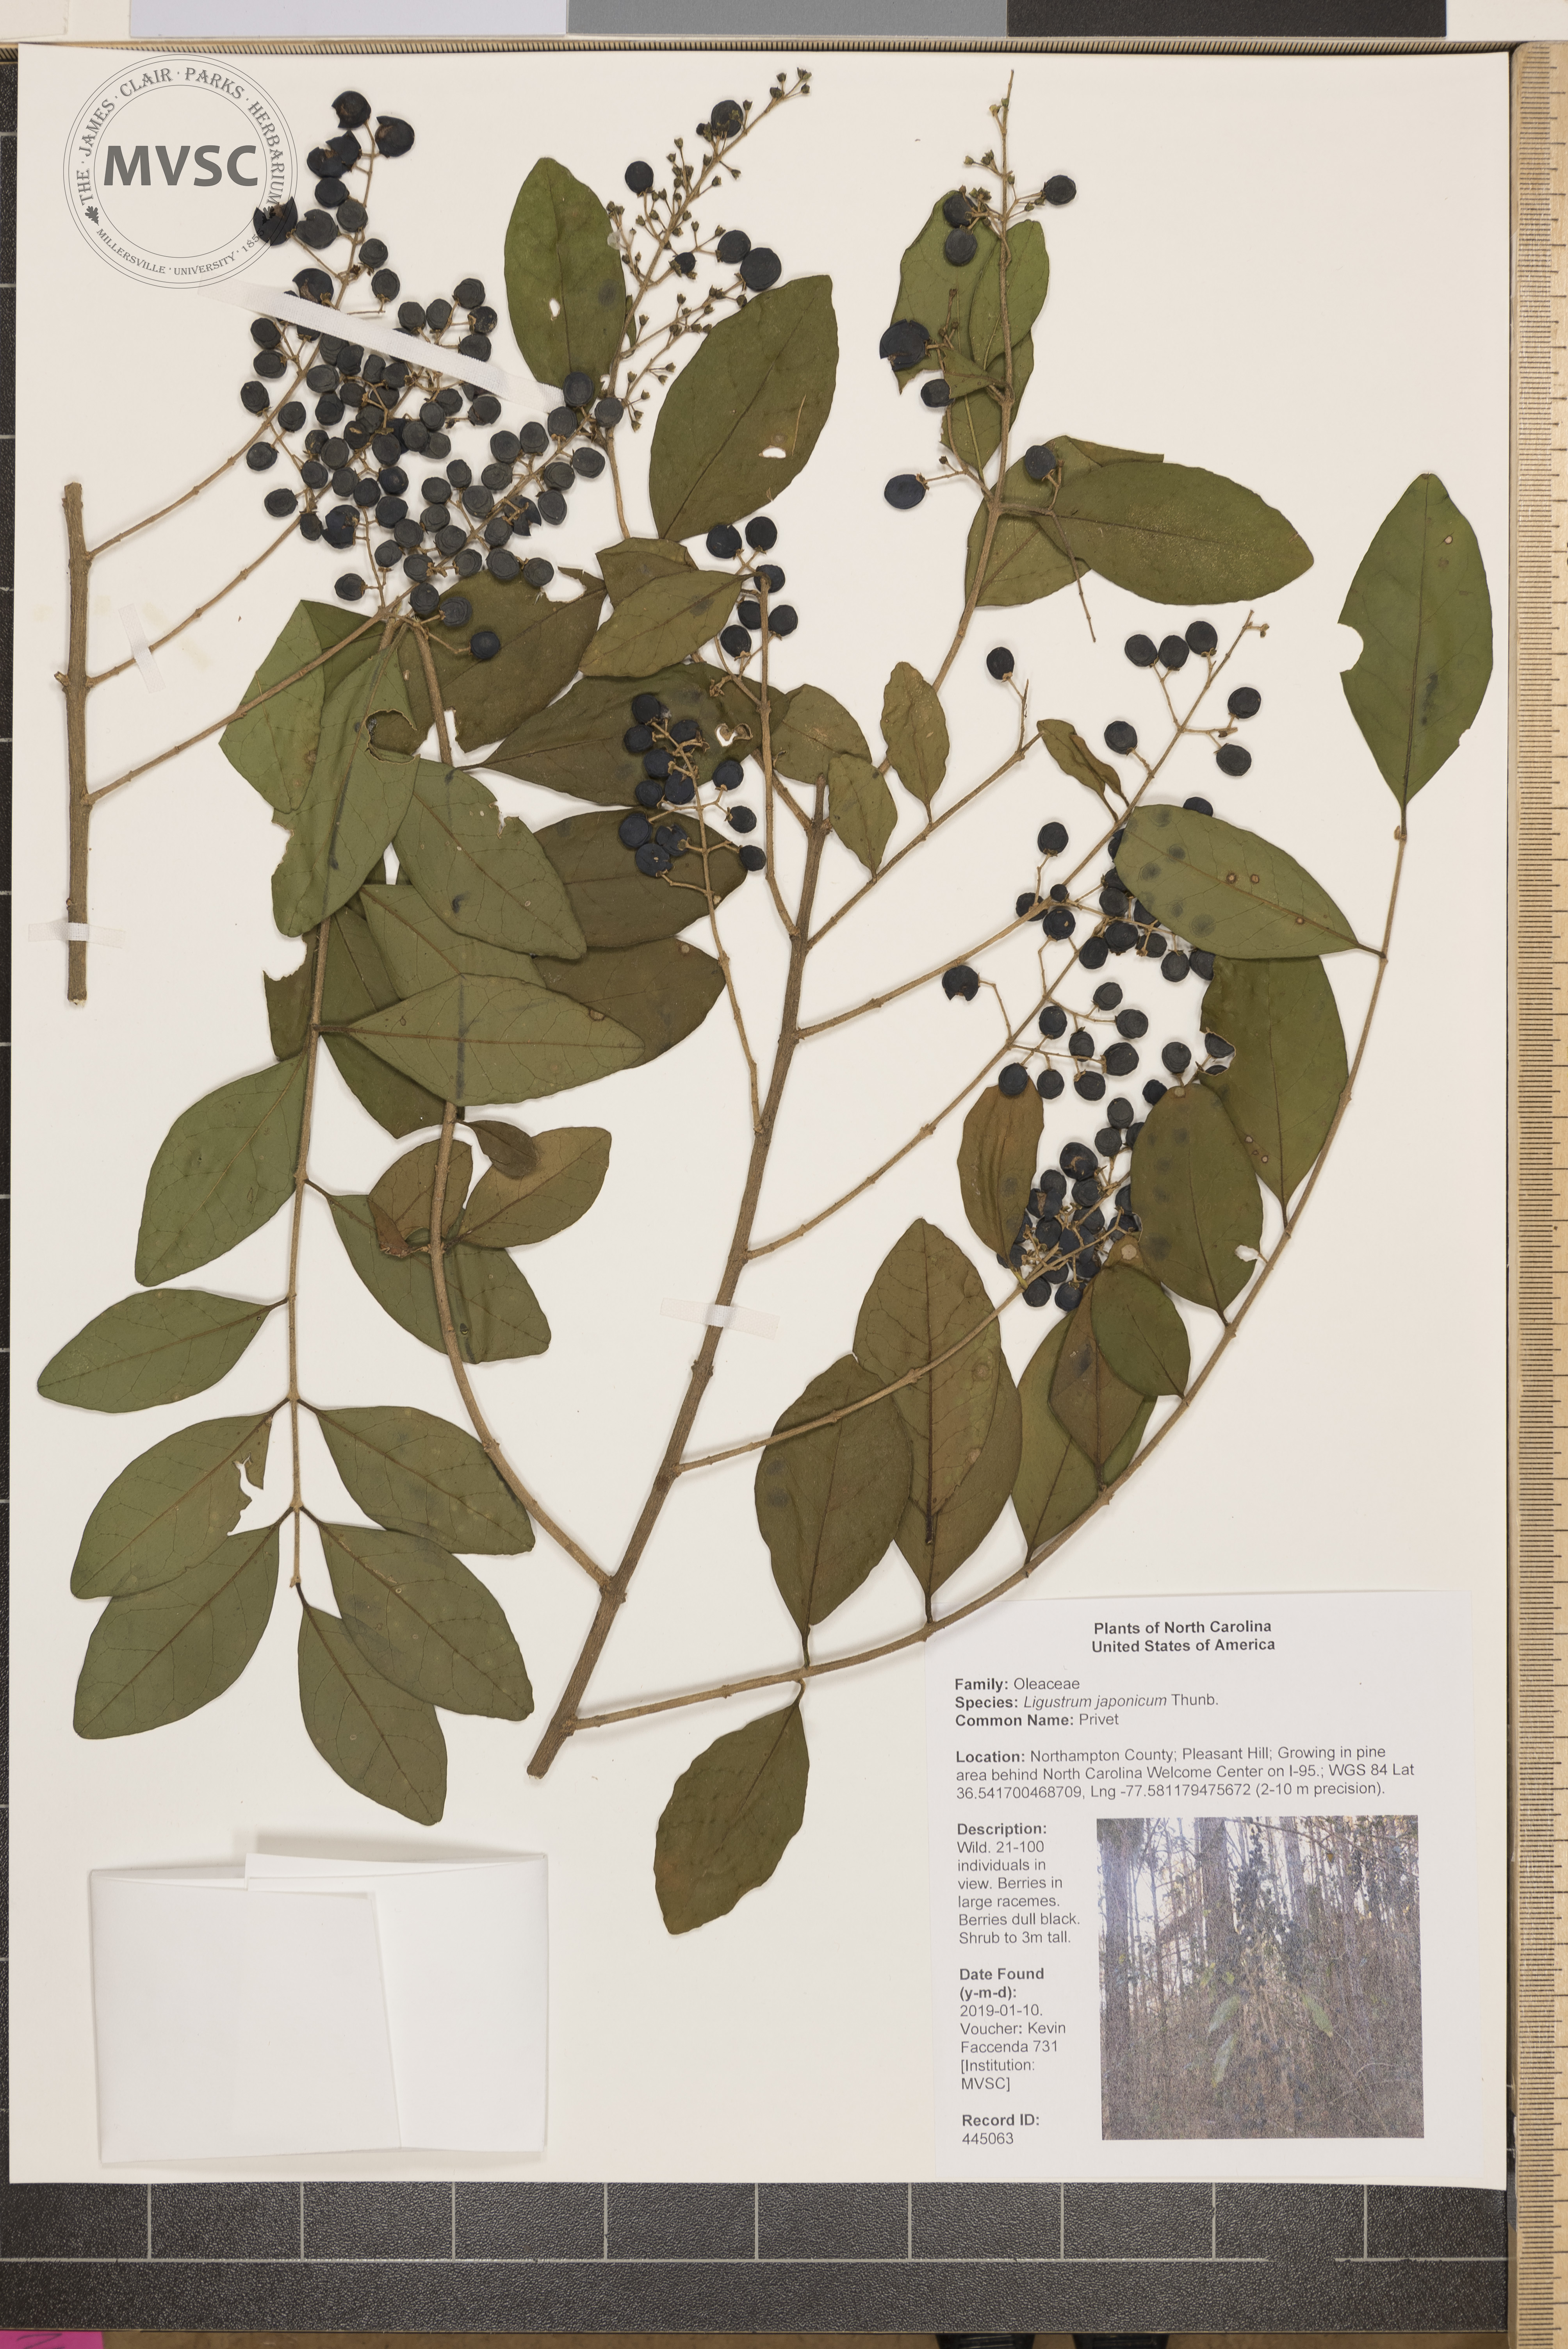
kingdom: Plantae
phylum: Tracheophyta
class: Magnoliopsida
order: Lamiales
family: Oleaceae
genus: Ligustrum
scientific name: Ligustrum japonicum
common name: Privet
